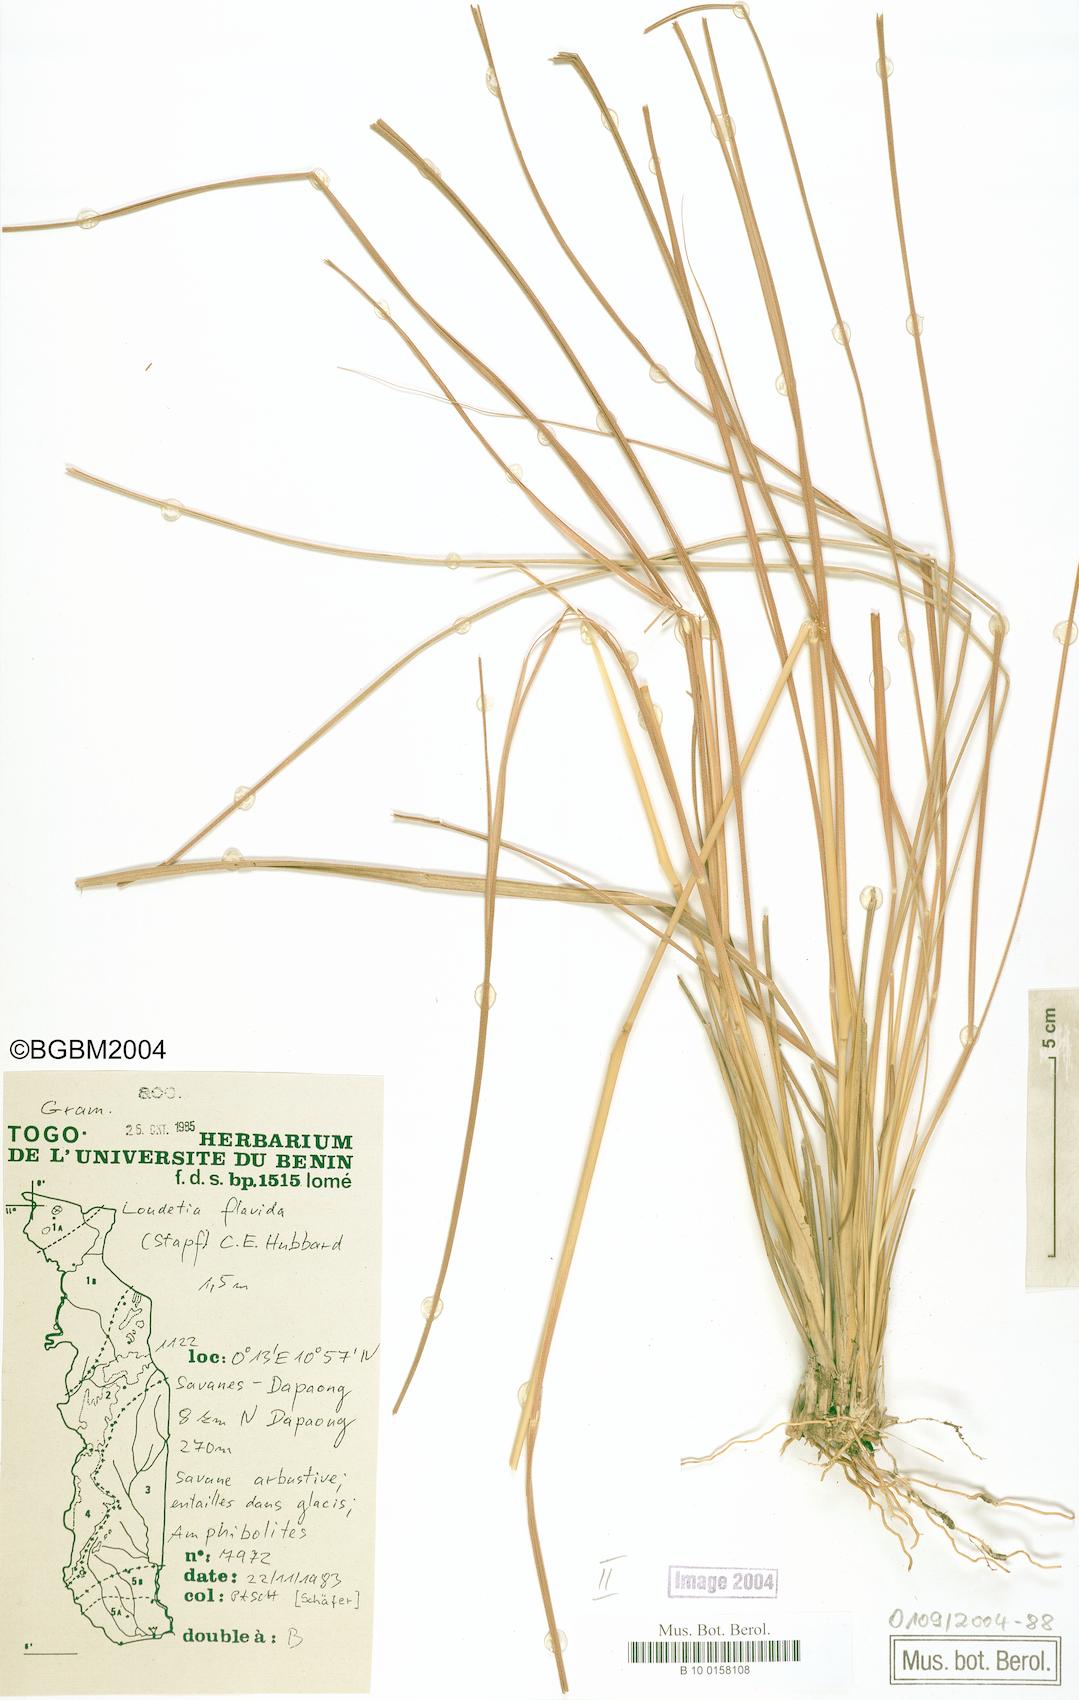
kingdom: Plantae
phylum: Tracheophyta
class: Liliopsida
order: Poales
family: Poaceae
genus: Loudetia
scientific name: Loudetia flavida
